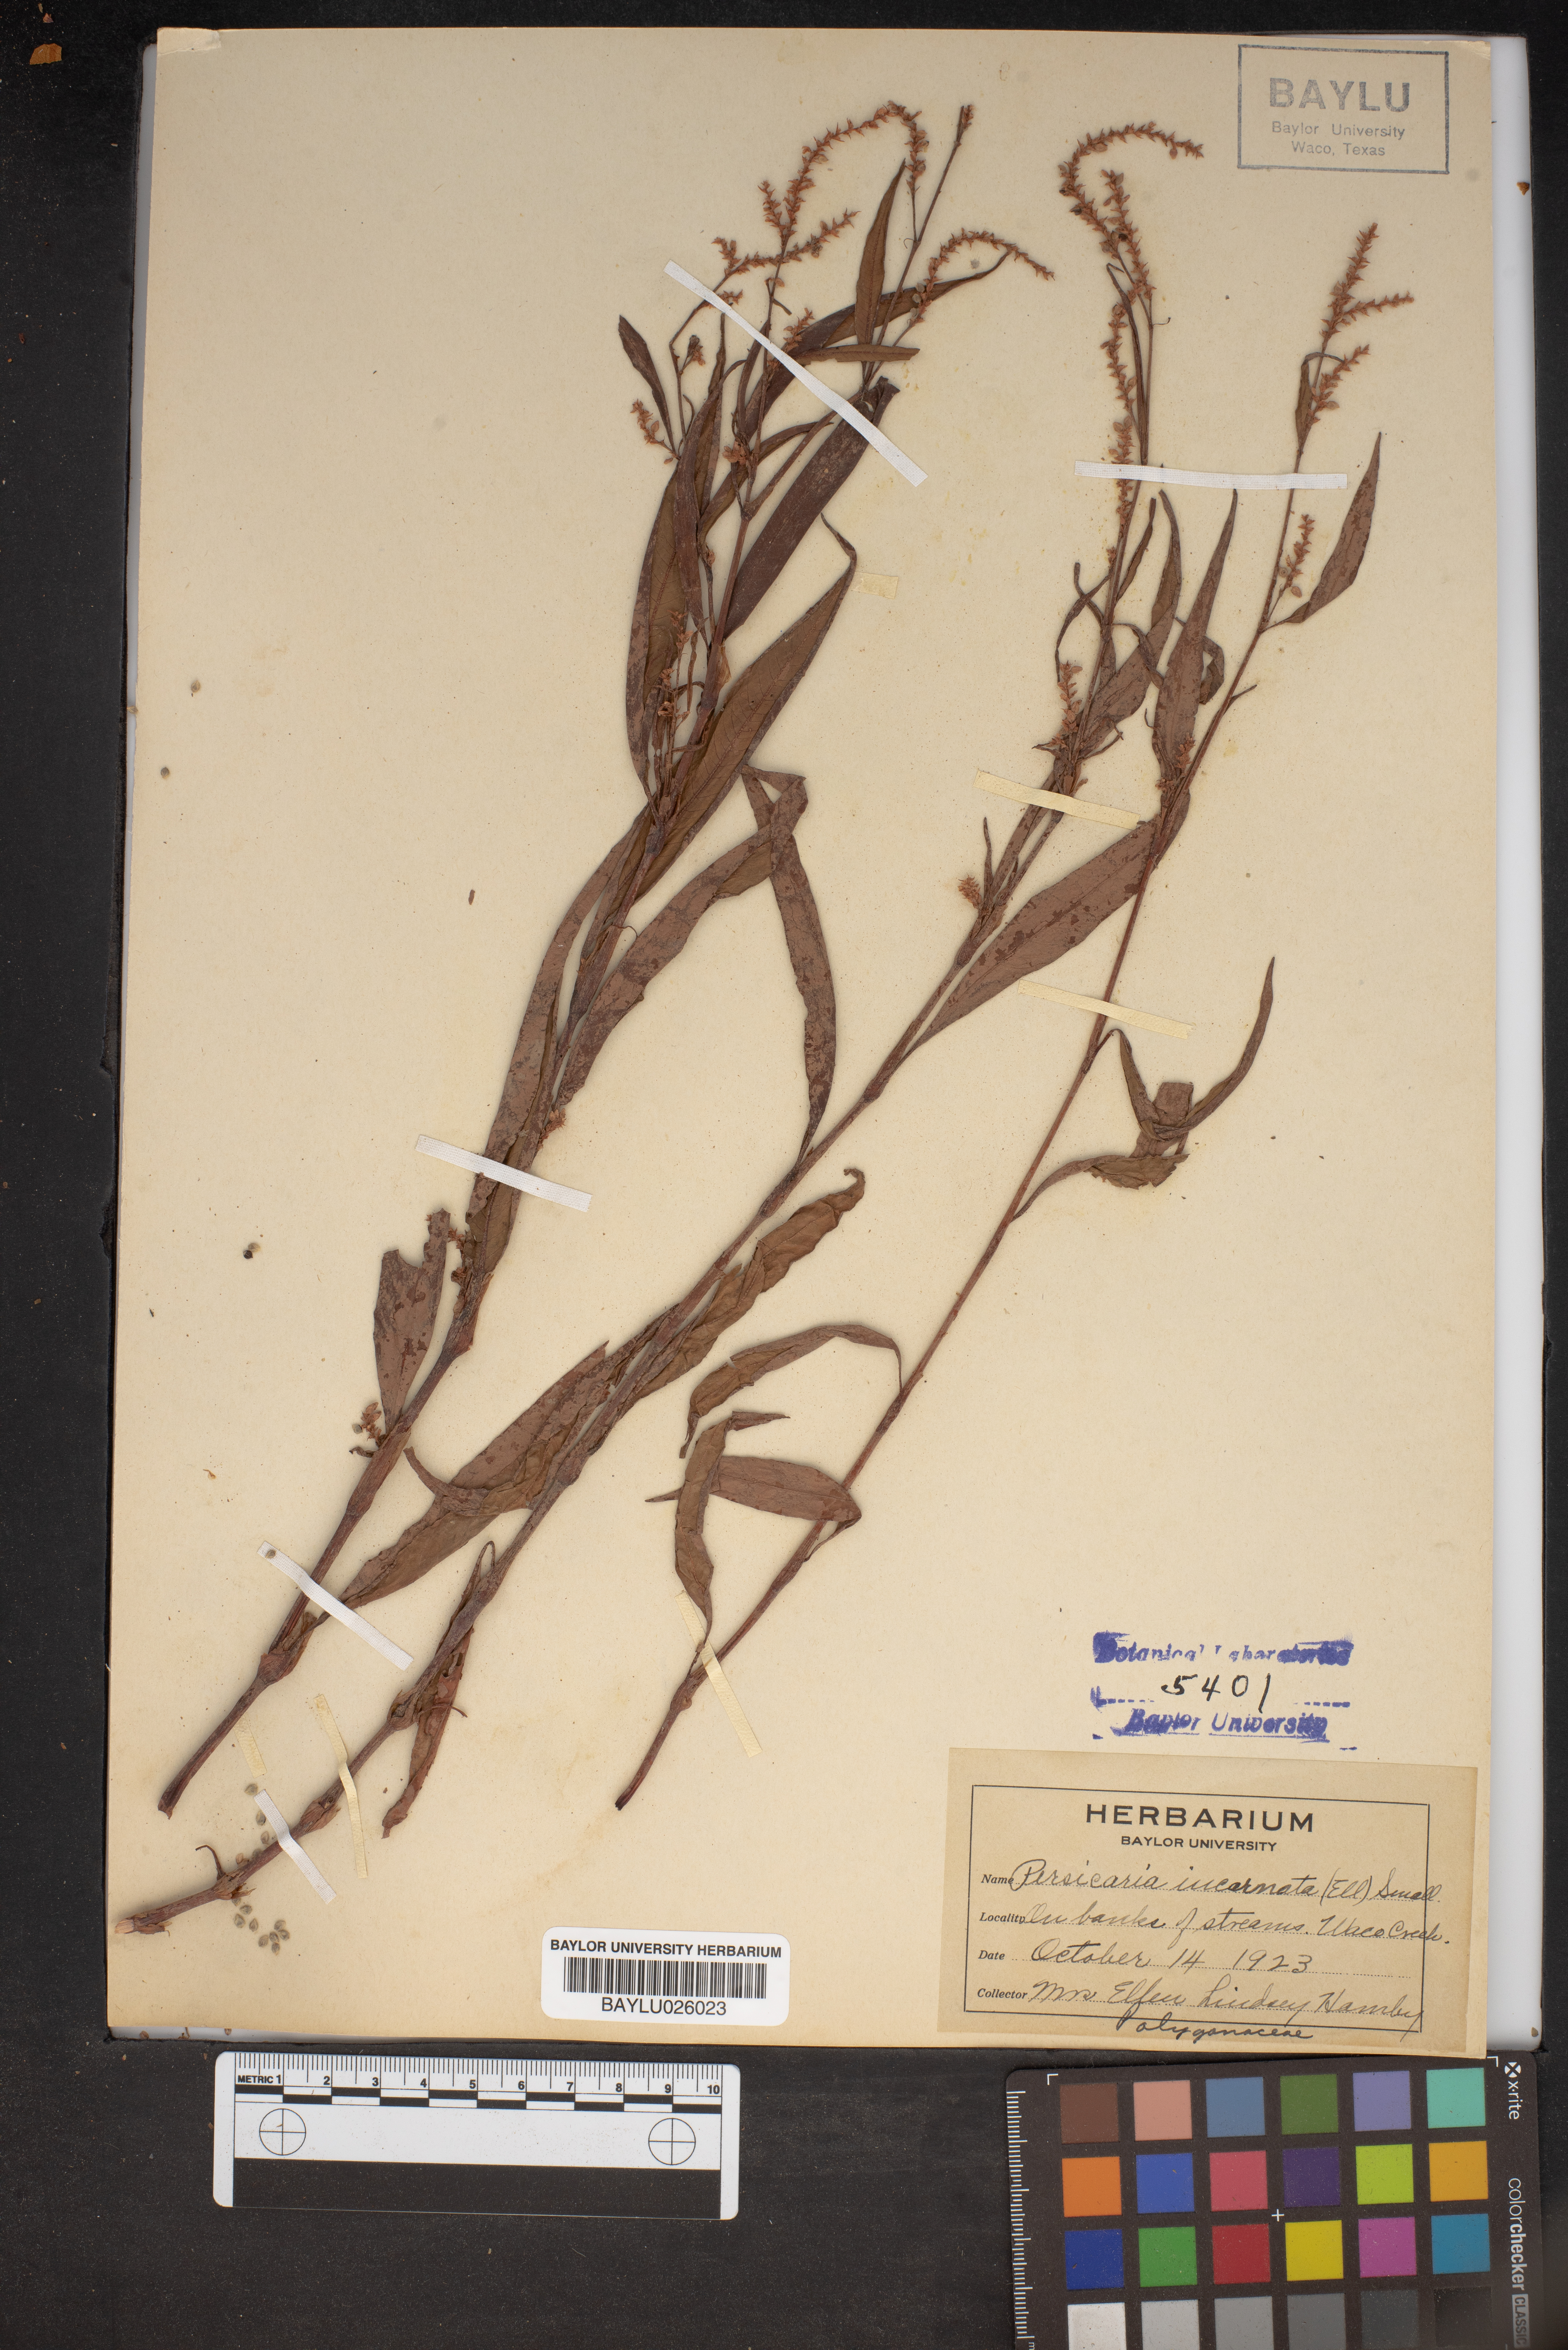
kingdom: Plantae
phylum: Tracheophyta
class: Magnoliopsida
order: Caryophyllales
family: Polygonaceae
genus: Persicaria
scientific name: Persicaria lapathifolia
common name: Curlytop knotweed
